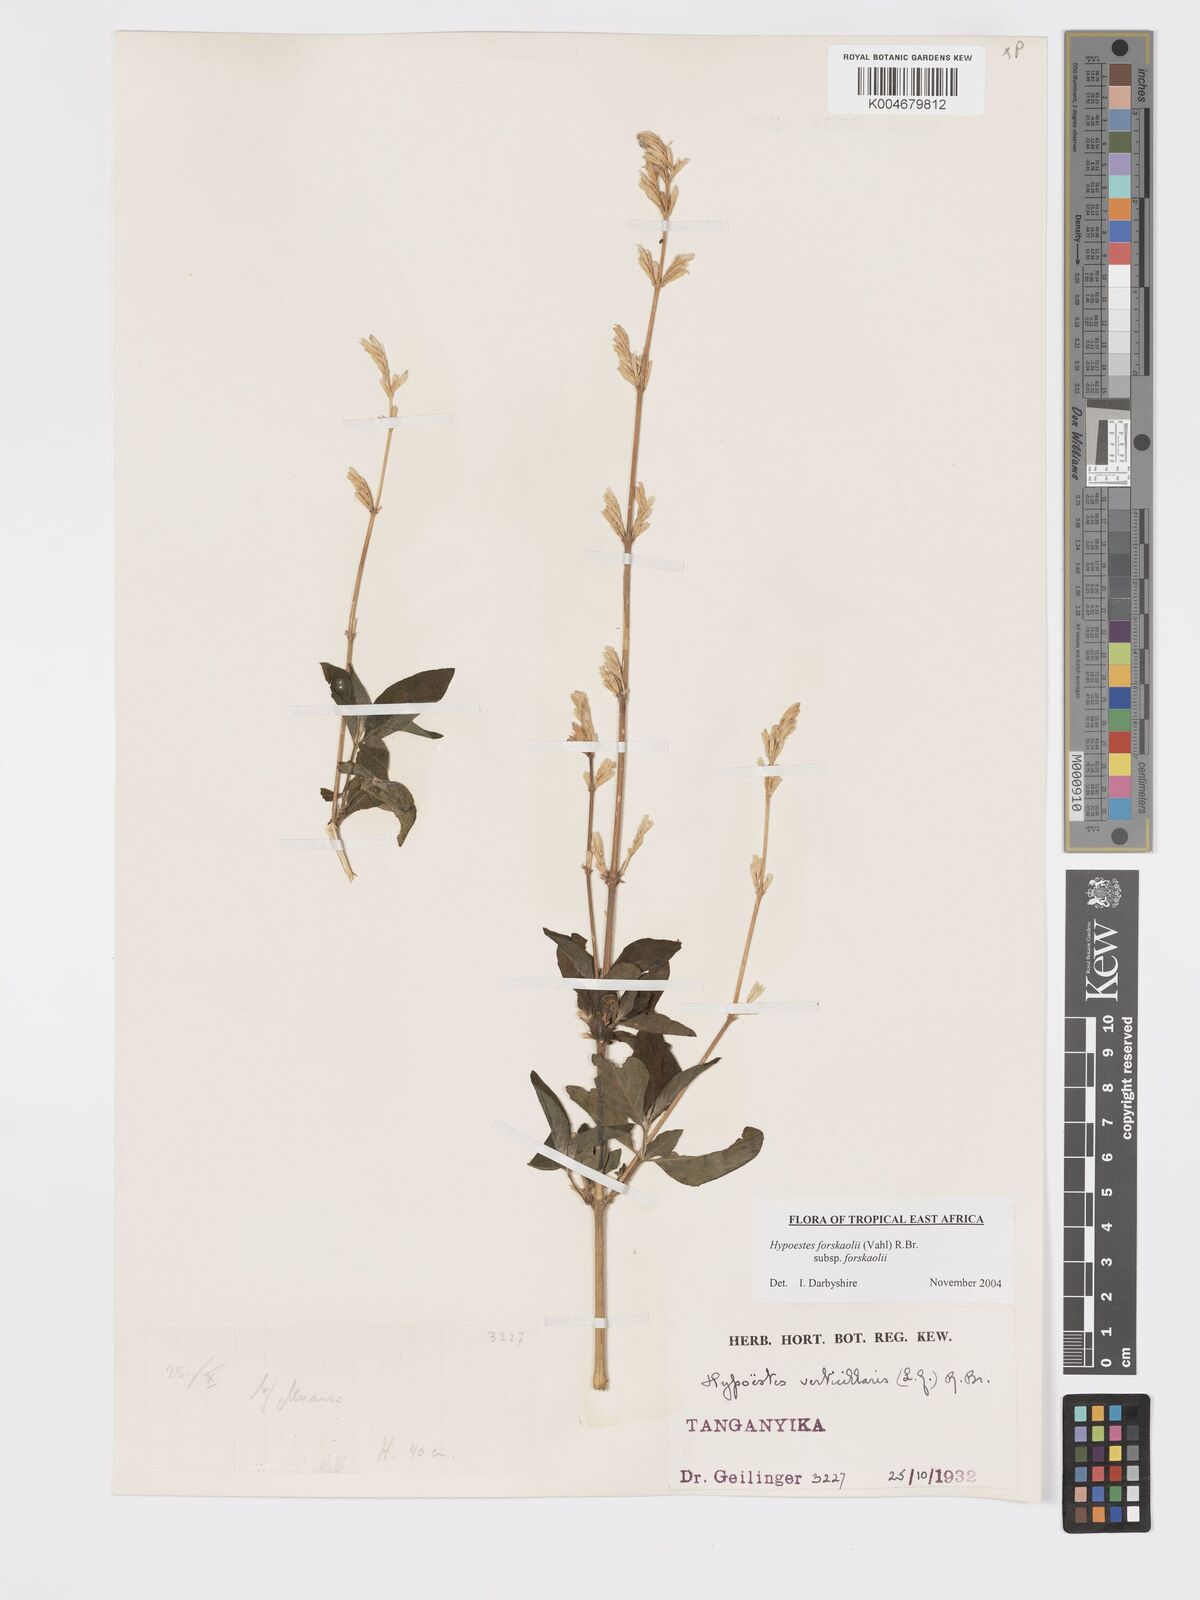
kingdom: Plantae
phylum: Tracheophyta
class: Magnoliopsida
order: Lamiales
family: Acanthaceae
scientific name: Acanthaceae
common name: Acanthaceae
